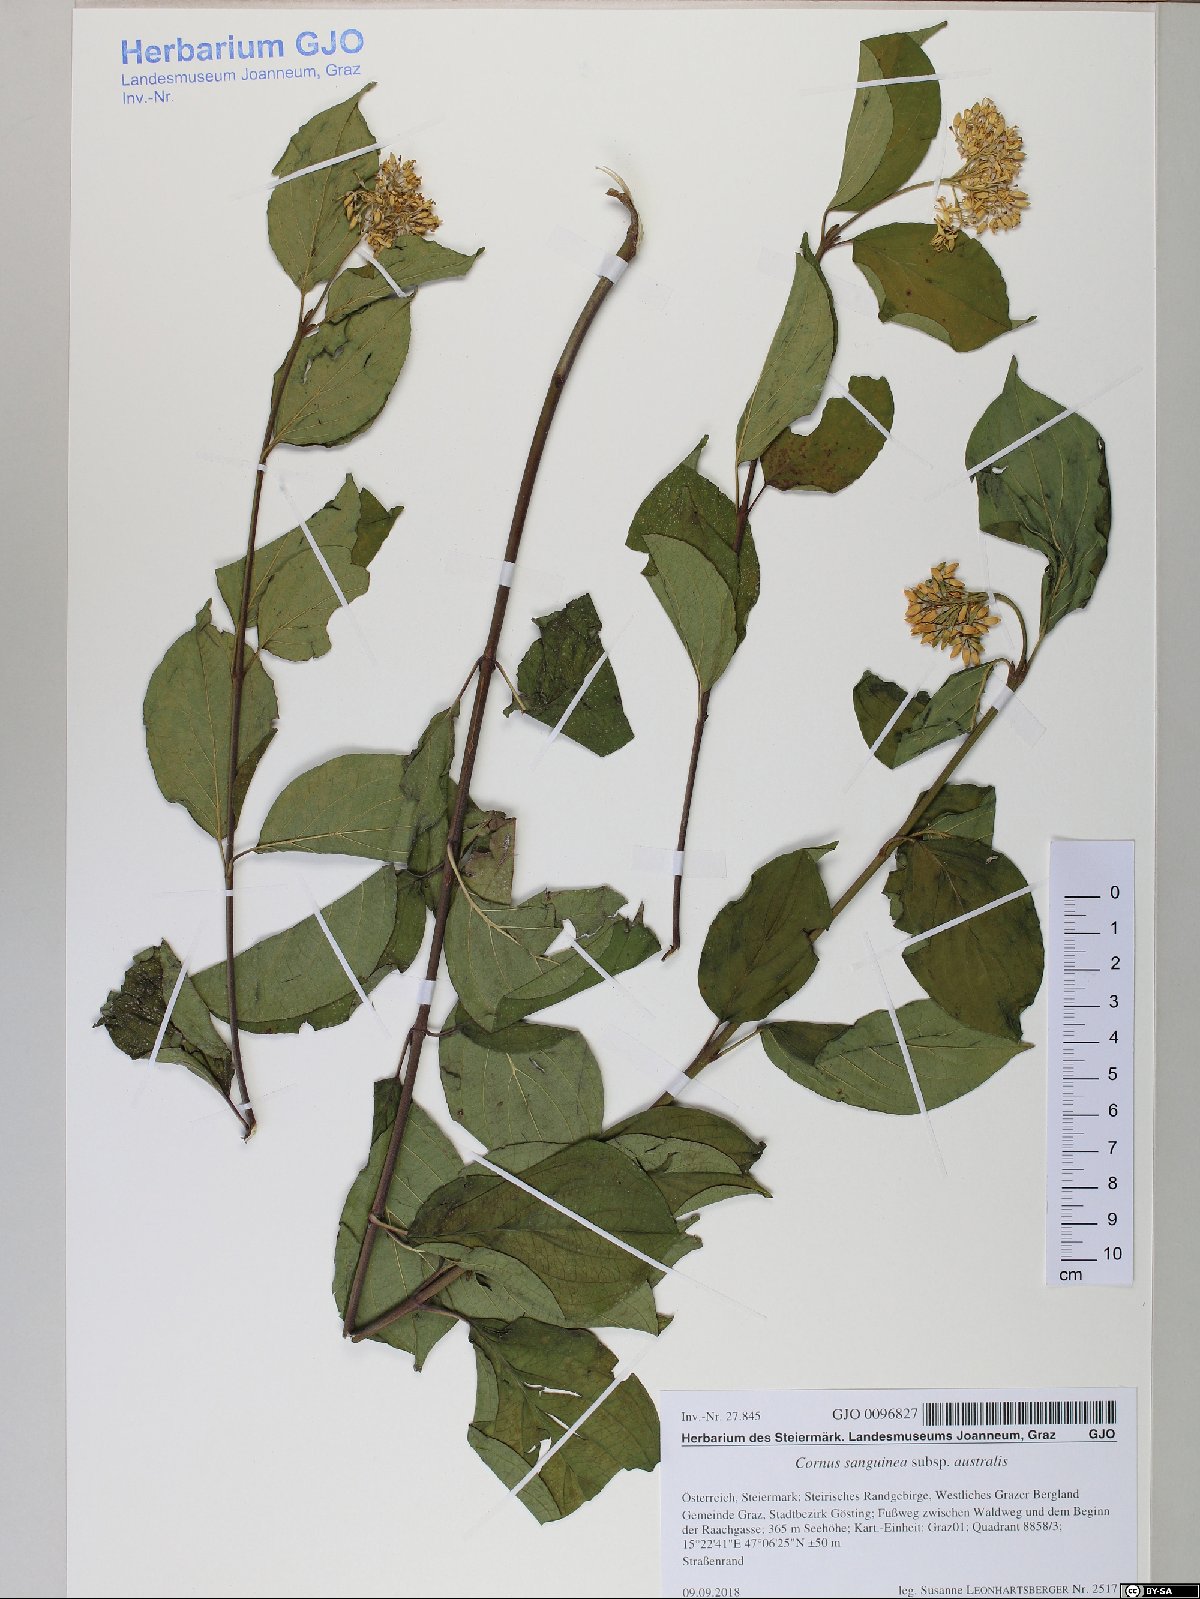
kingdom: Plantae
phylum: Tracheophyta
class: Magnoliopsida
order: Cornales
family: Cornaceae
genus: Cornus
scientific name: Cornus sanguinea
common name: Dogwood
